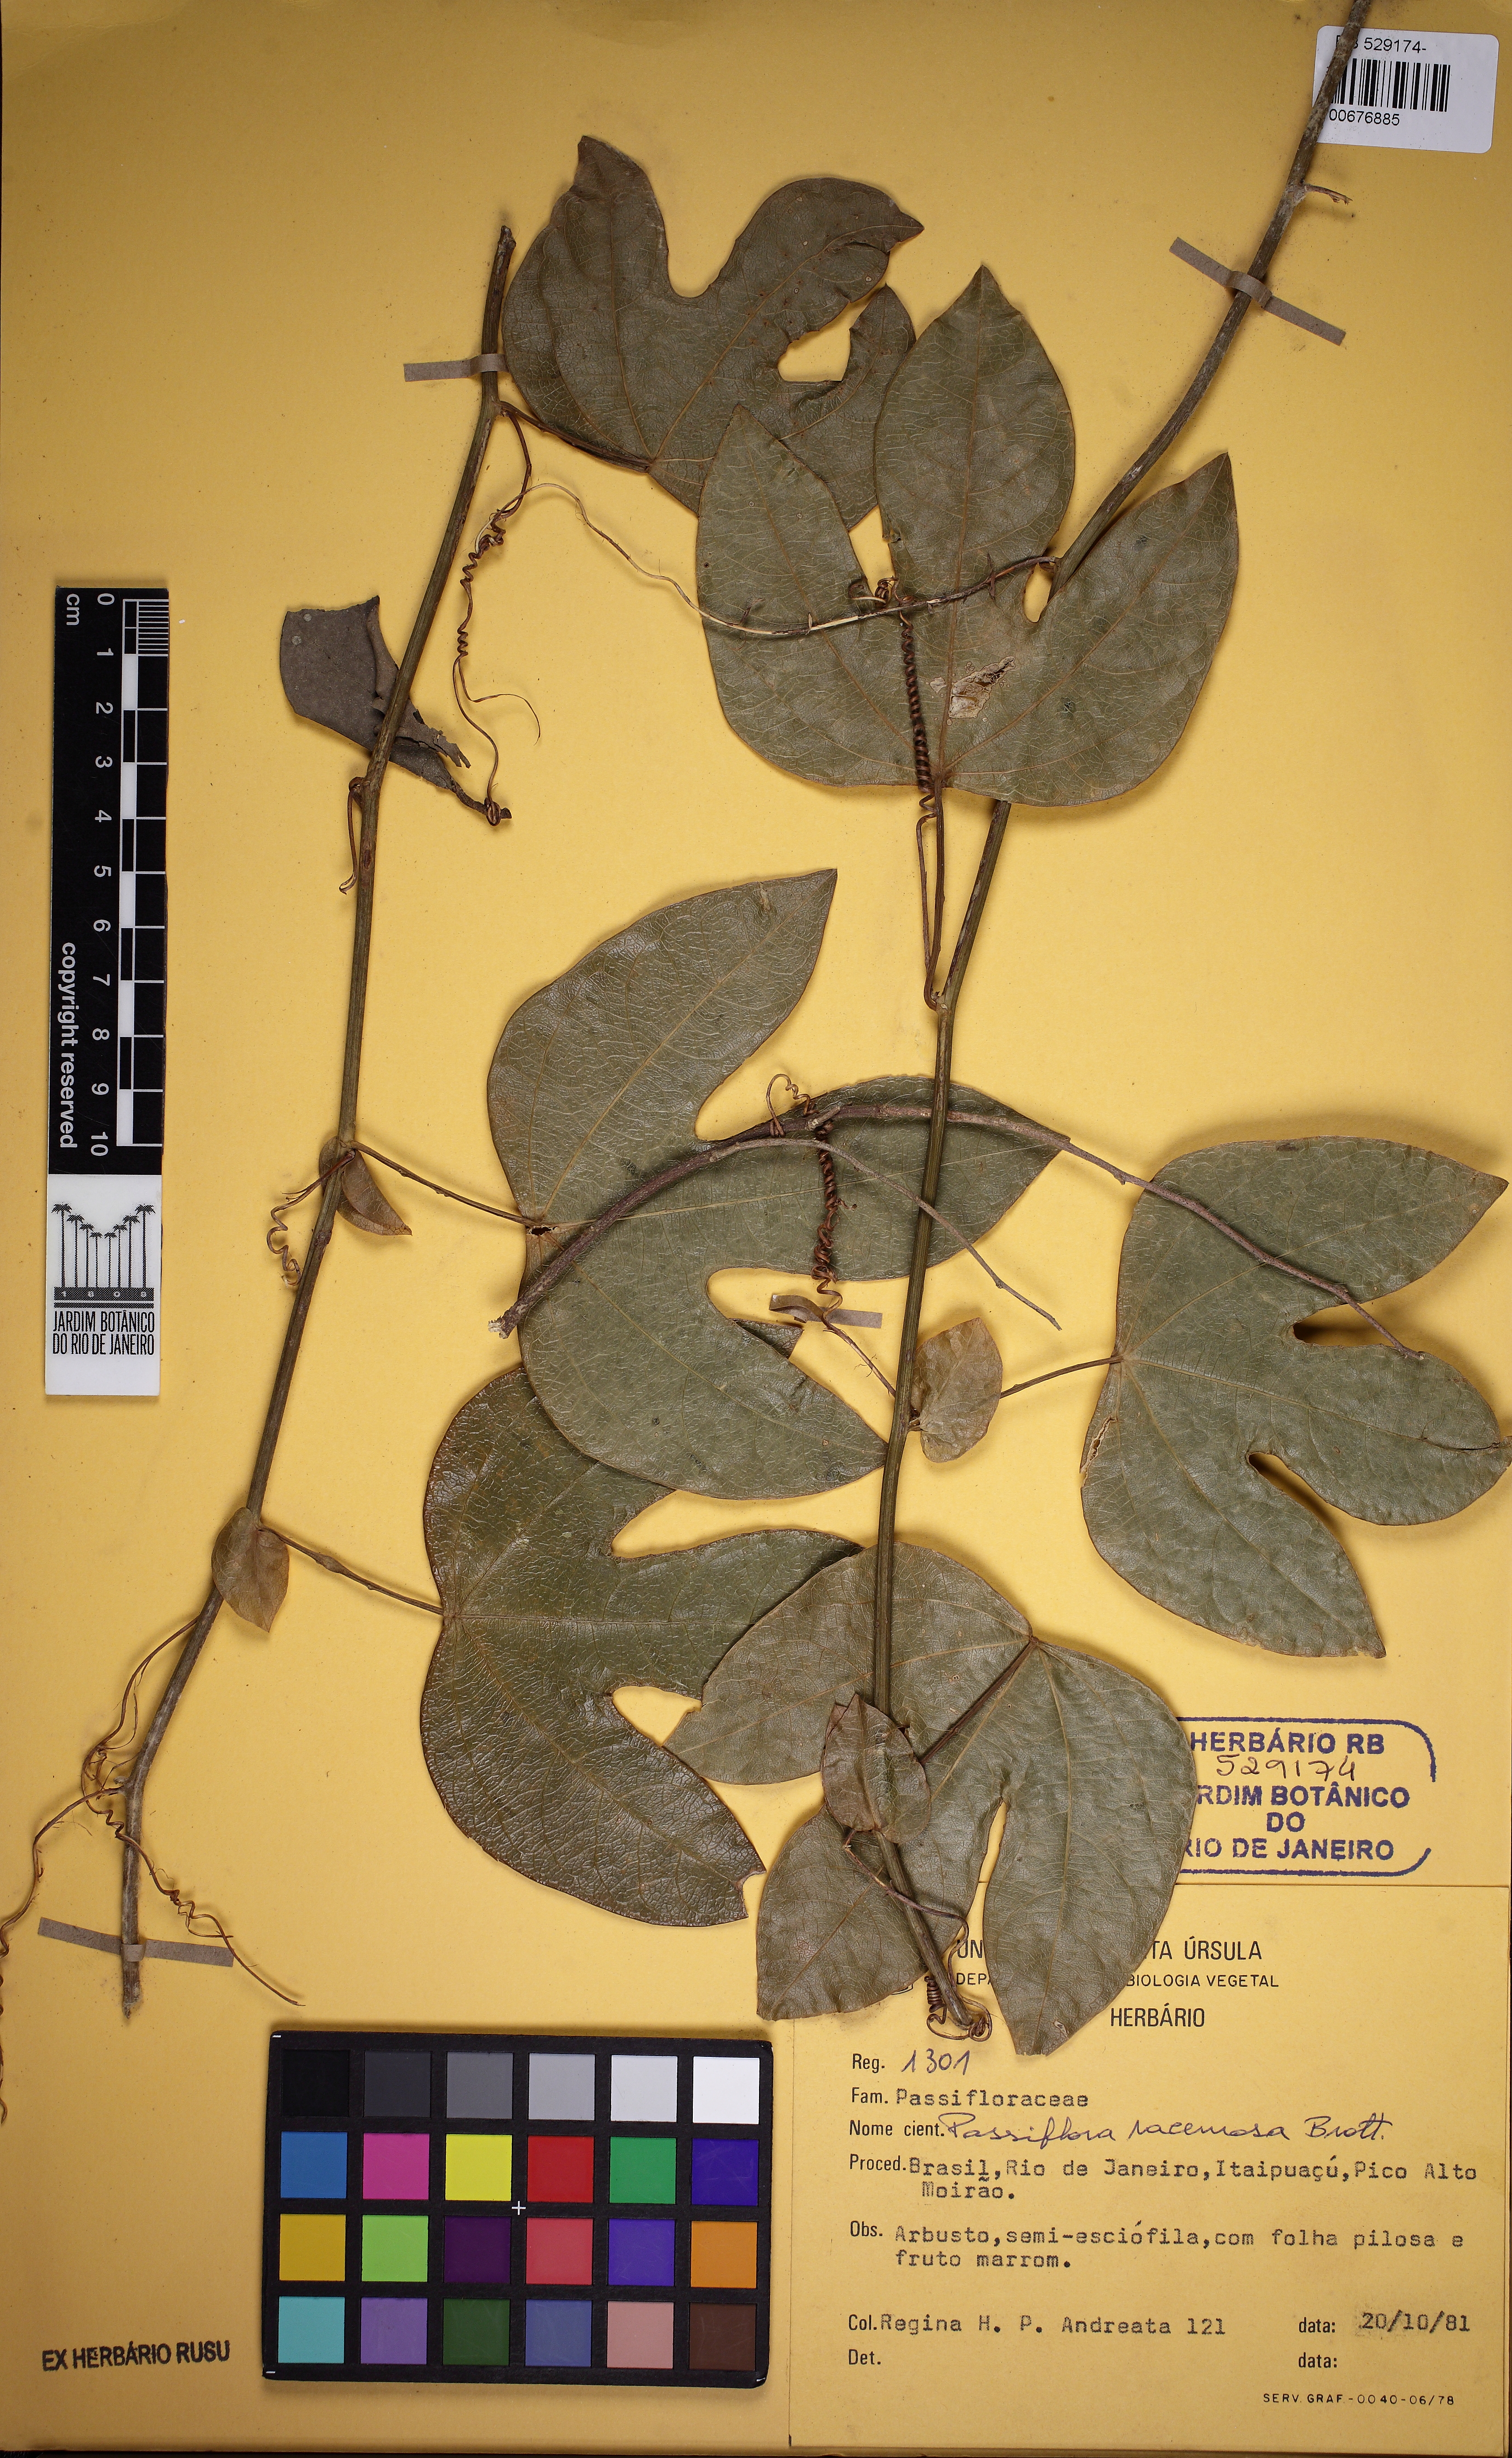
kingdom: Plantae
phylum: Tracheophyta
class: Magnoliopsida
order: Malpighiales
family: Passifloraceae
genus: Passiflora
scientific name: Passiflora racemosa
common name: Red passionflower
